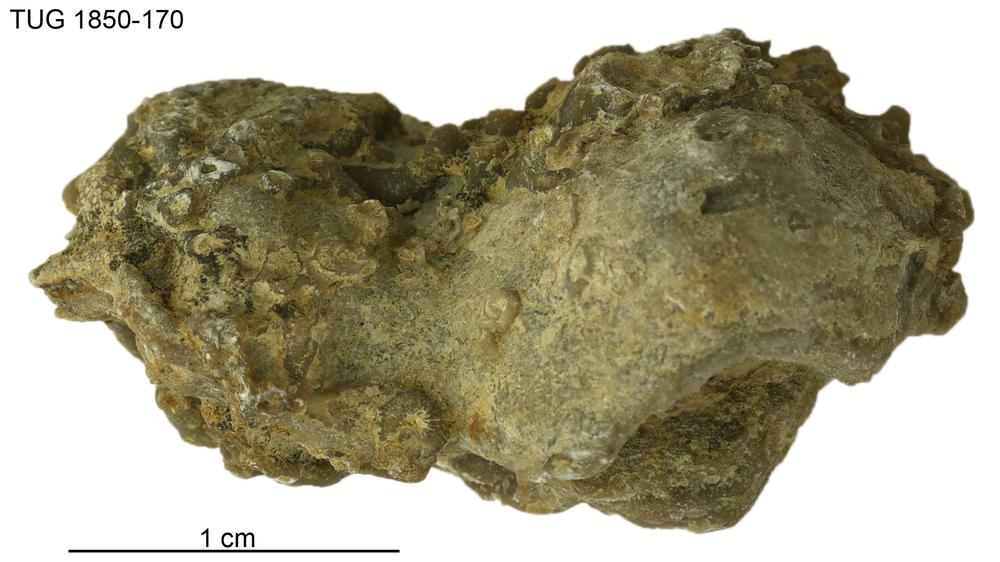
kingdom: Animalia
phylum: Porifera
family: Stromatoporidae
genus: Stromatopora
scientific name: Stromatopora
